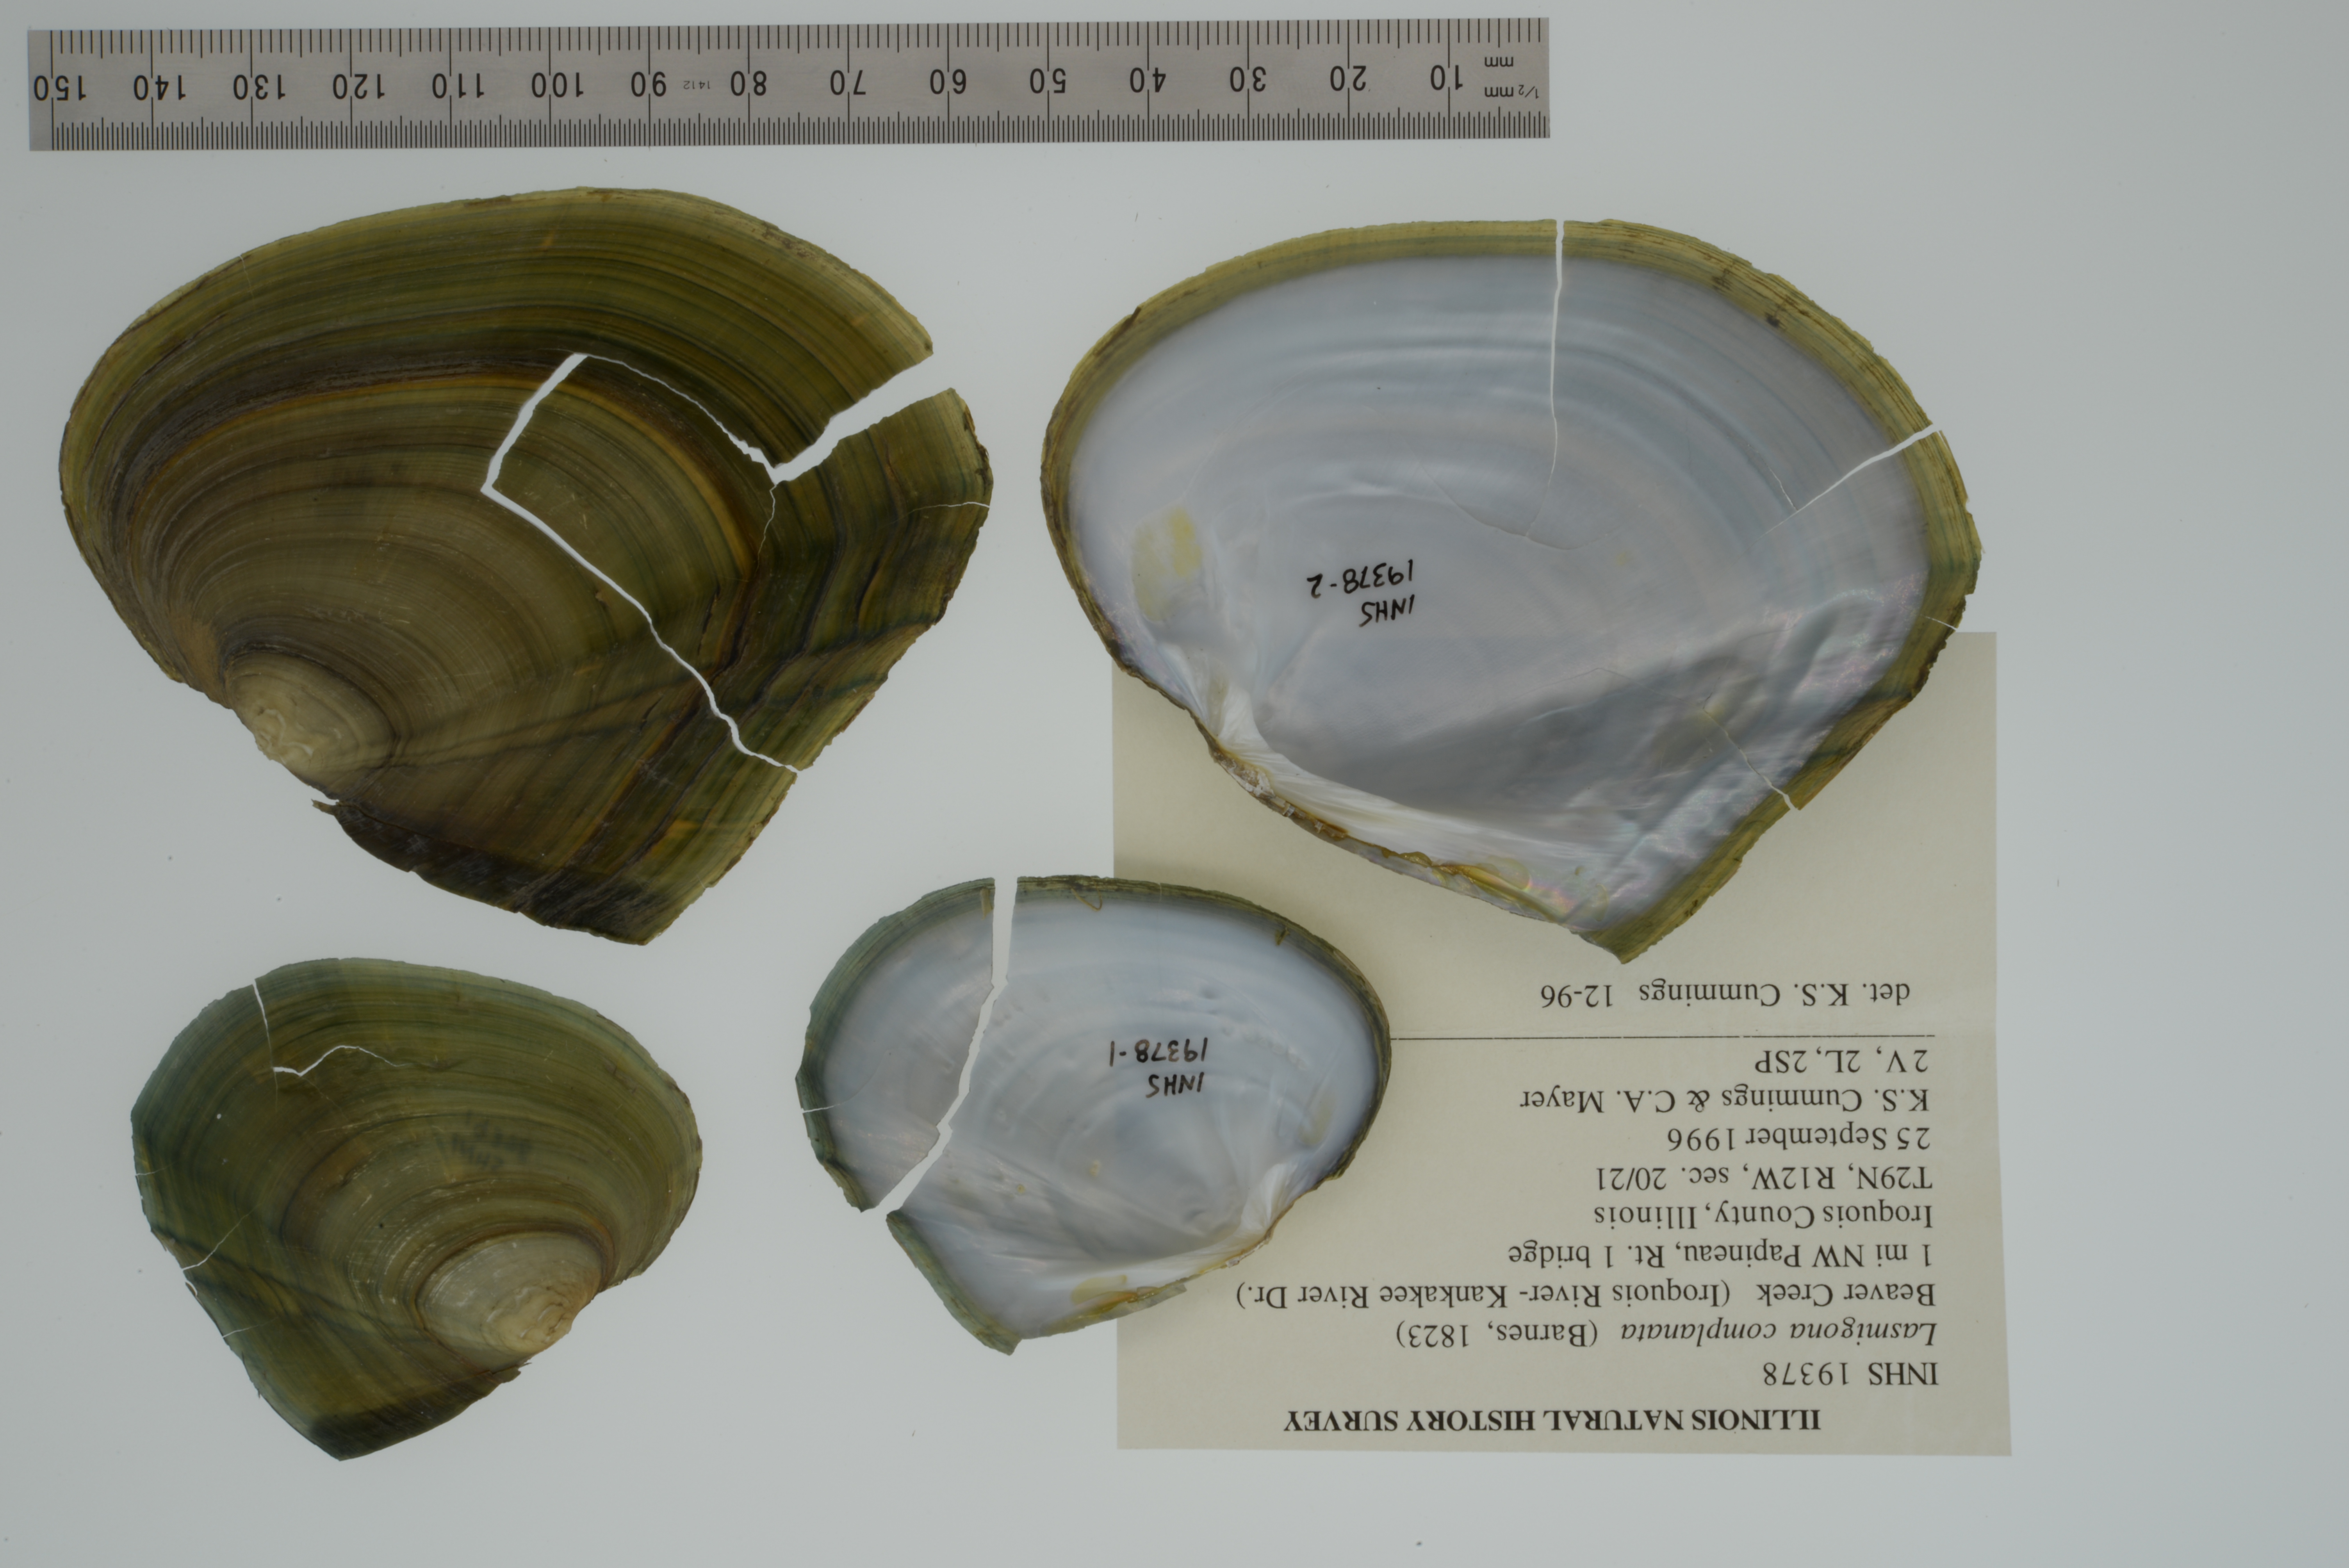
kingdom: Animalia
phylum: Mollusca
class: Bivalvia
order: Unionida
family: Unionidae
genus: Lasmigona
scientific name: Lasmigona complanata
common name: White heelsplitter
